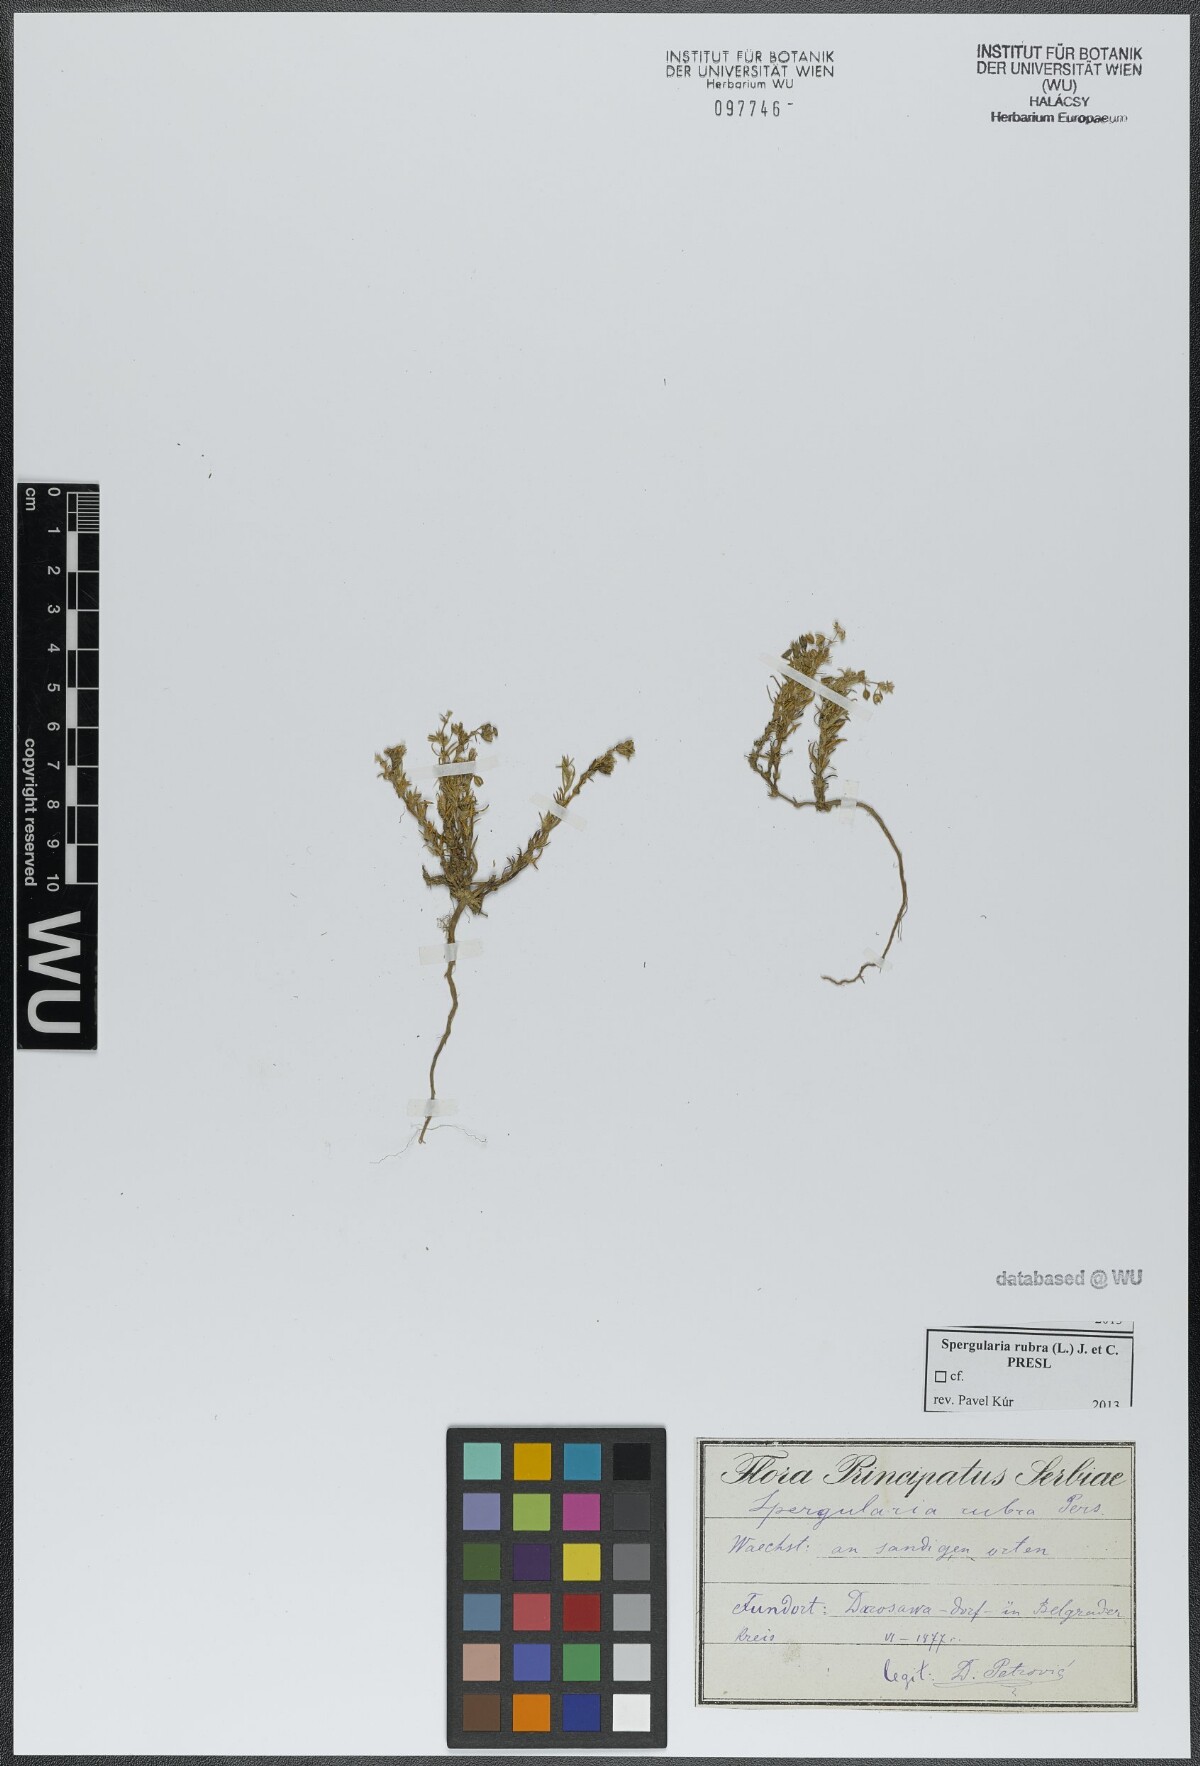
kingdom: Plantae
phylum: Tracheophyta
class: Magnoliopsida
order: Caryophyllales
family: Caryophyllaceae
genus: Spergularia
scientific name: Spergularia rubra
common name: Red sand-spurrey
